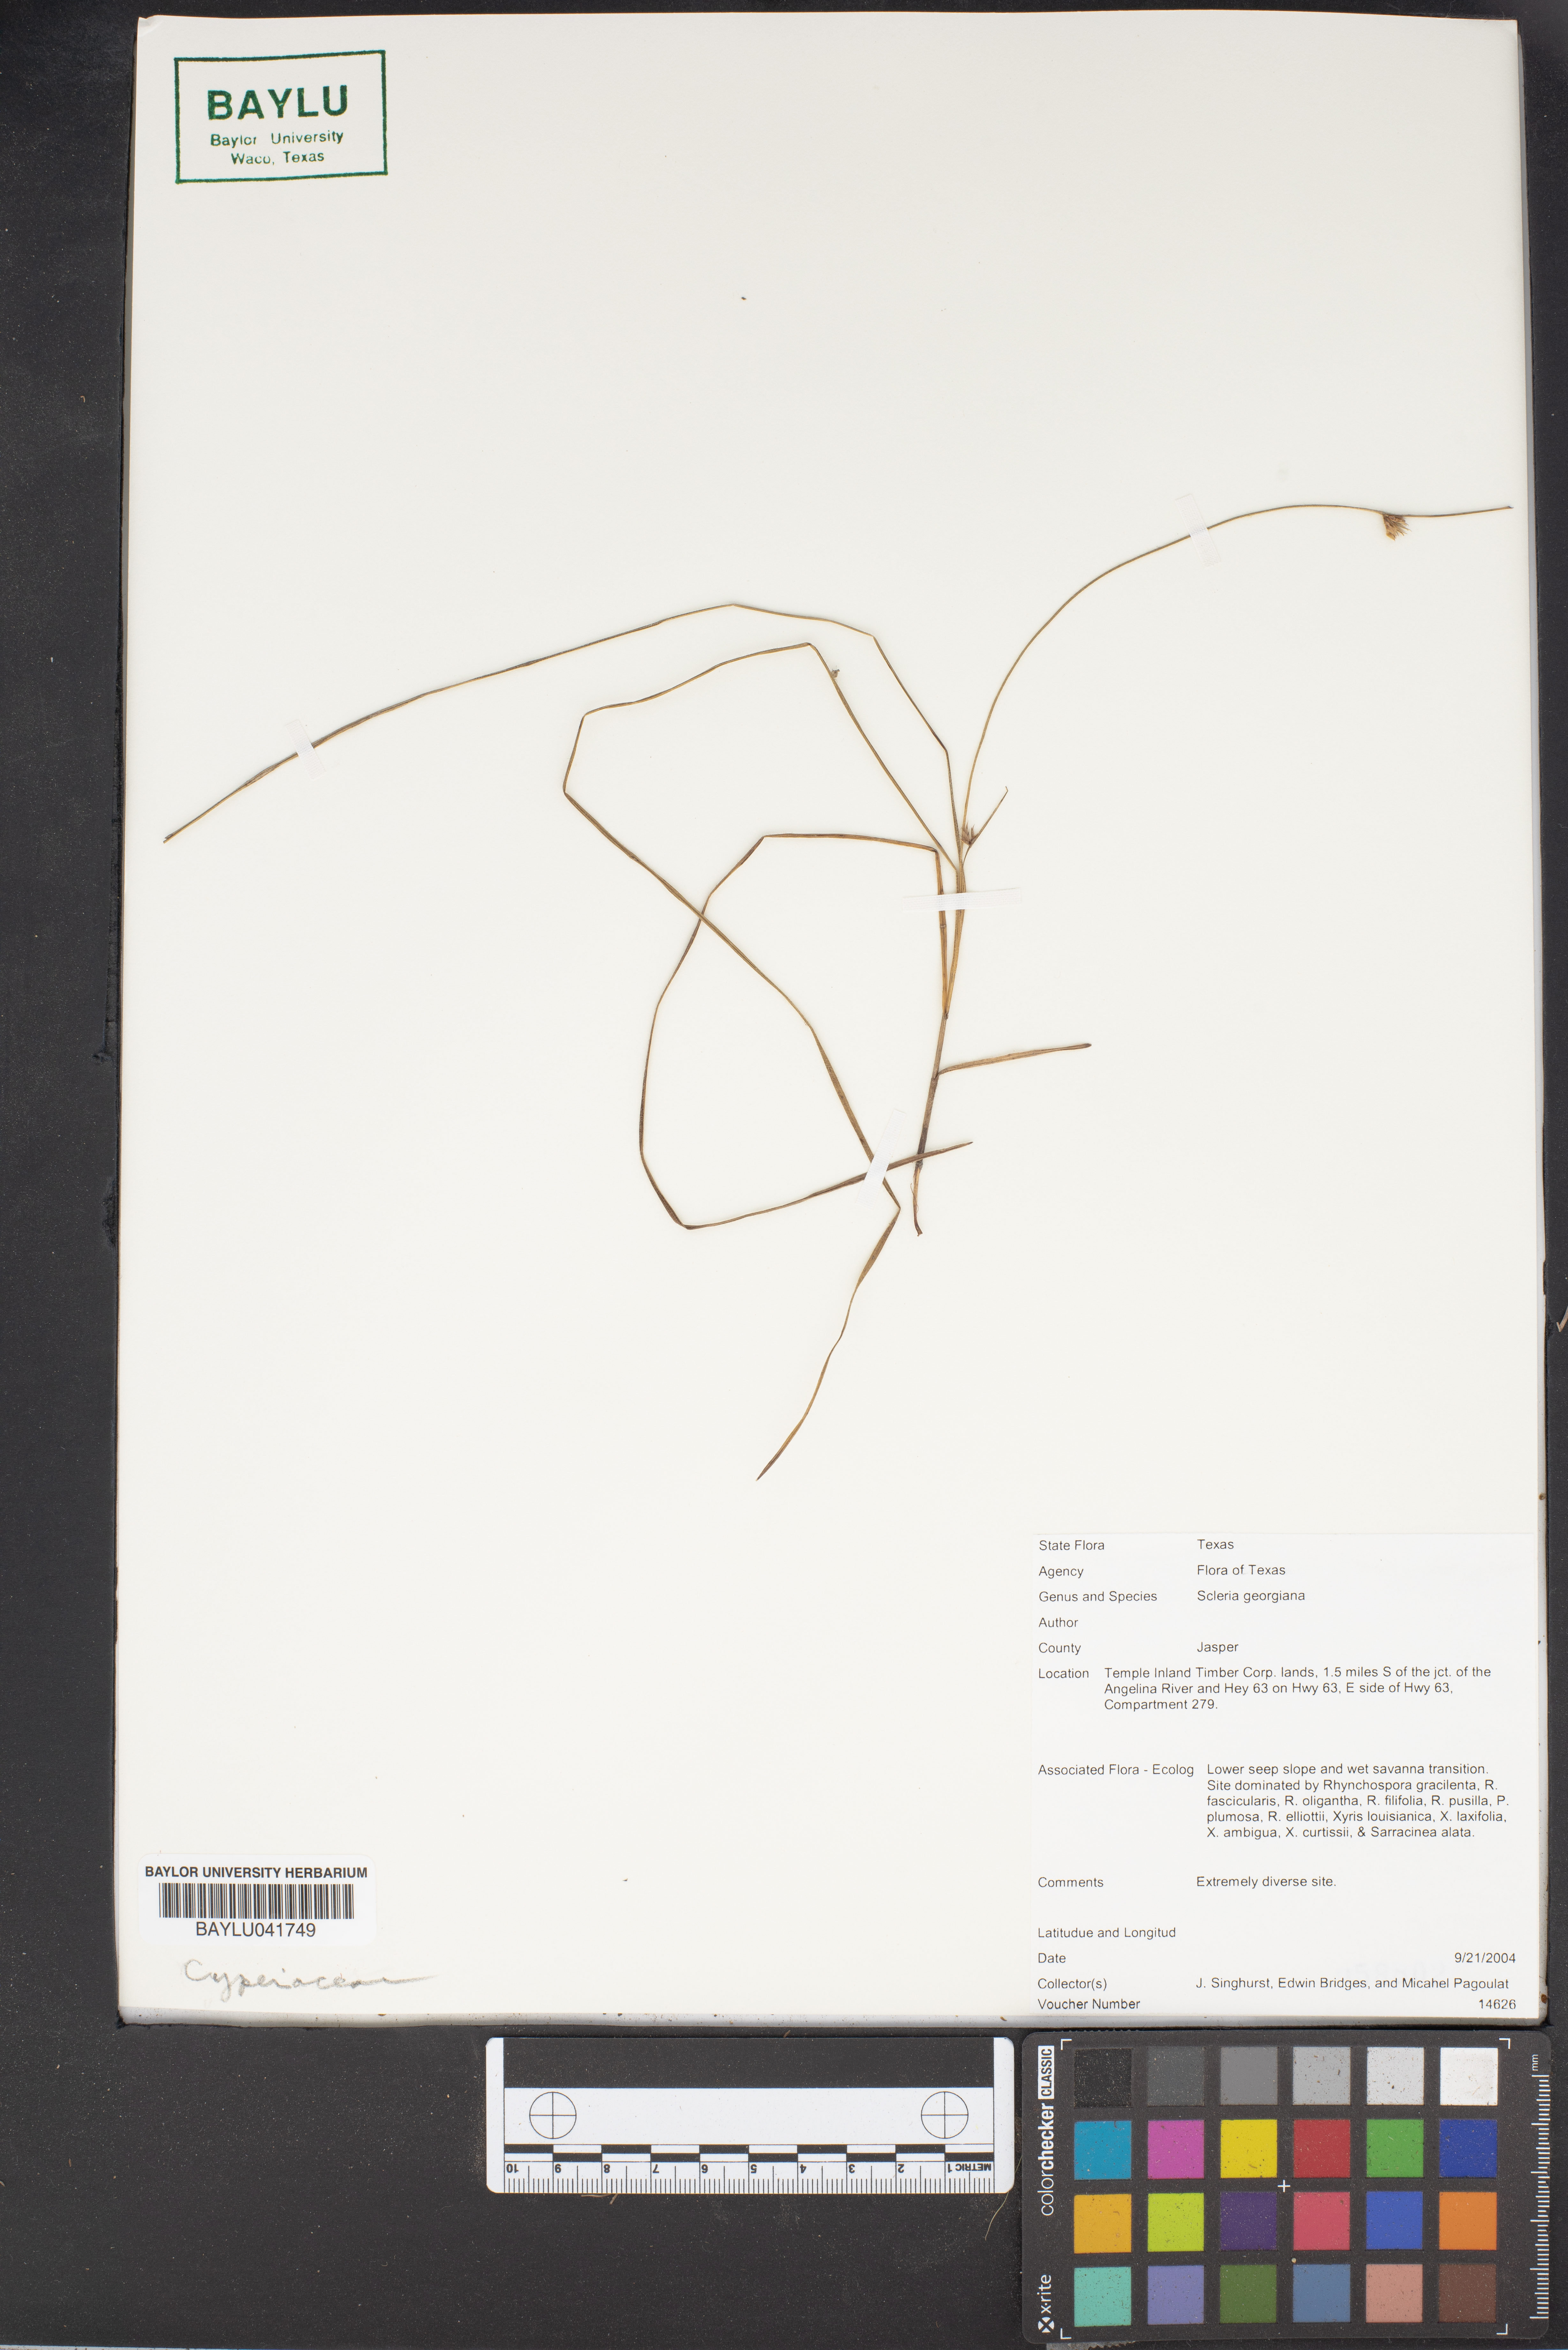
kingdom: Plantae
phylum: Tracheophyta
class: Liliopsida
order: Poales
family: Cyperaceae
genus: Scleria
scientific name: Scleria georgiana
